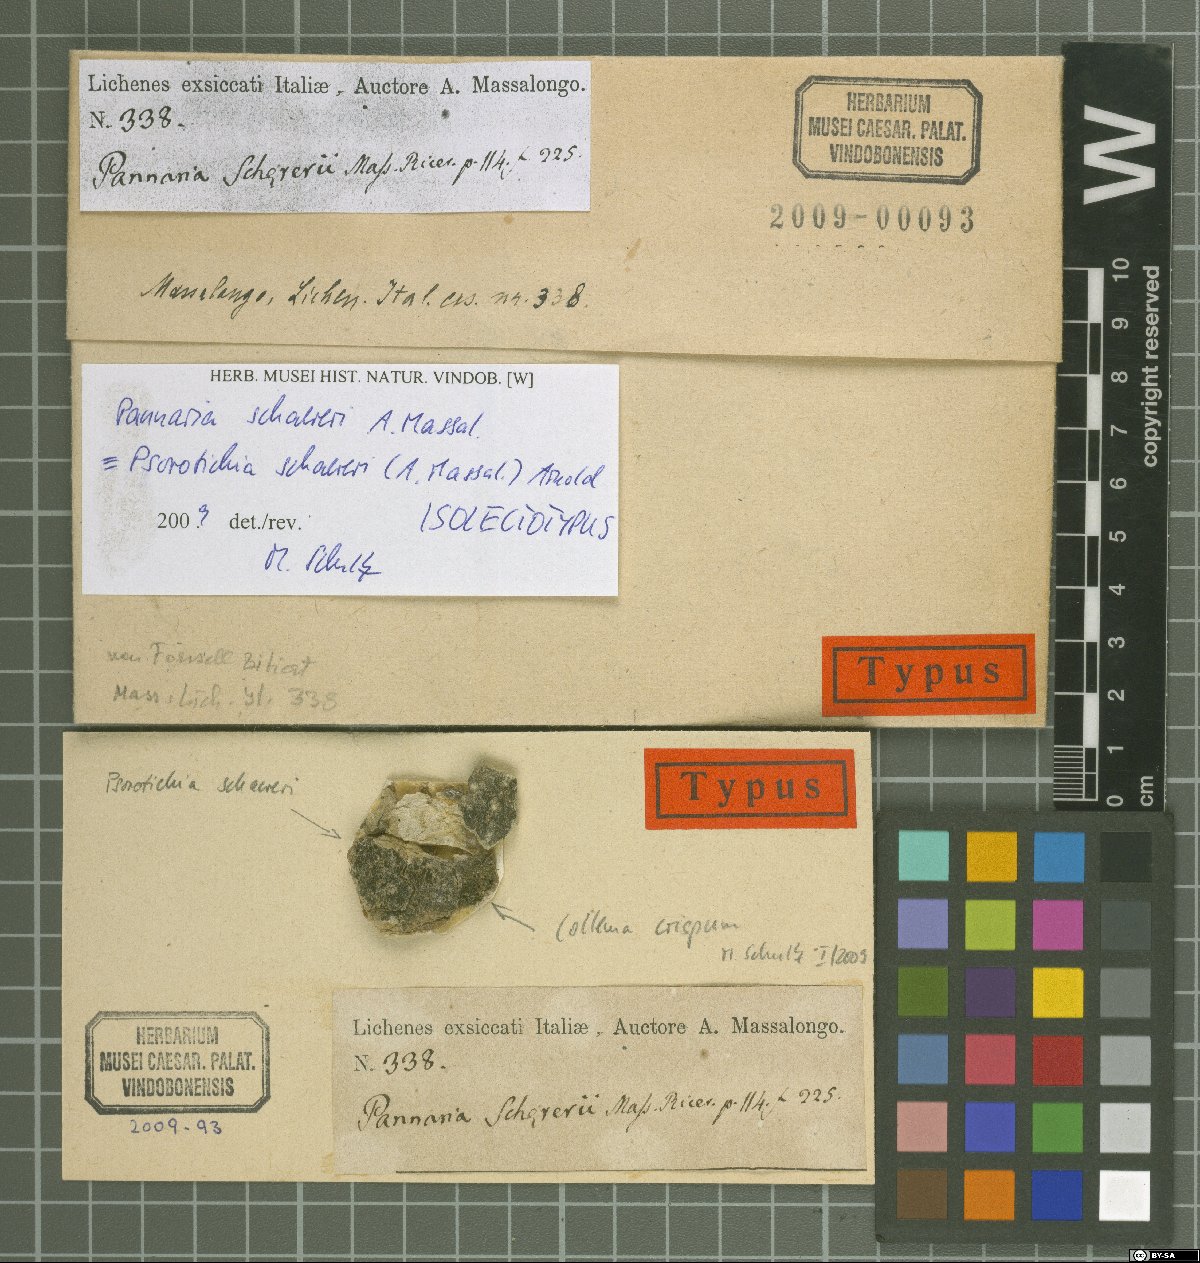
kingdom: Fungi
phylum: Ascomycota
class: Lichinomycetes
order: Lichinales
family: Lichinaceae
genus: Psorotichia
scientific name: Psorotichia schaereri
